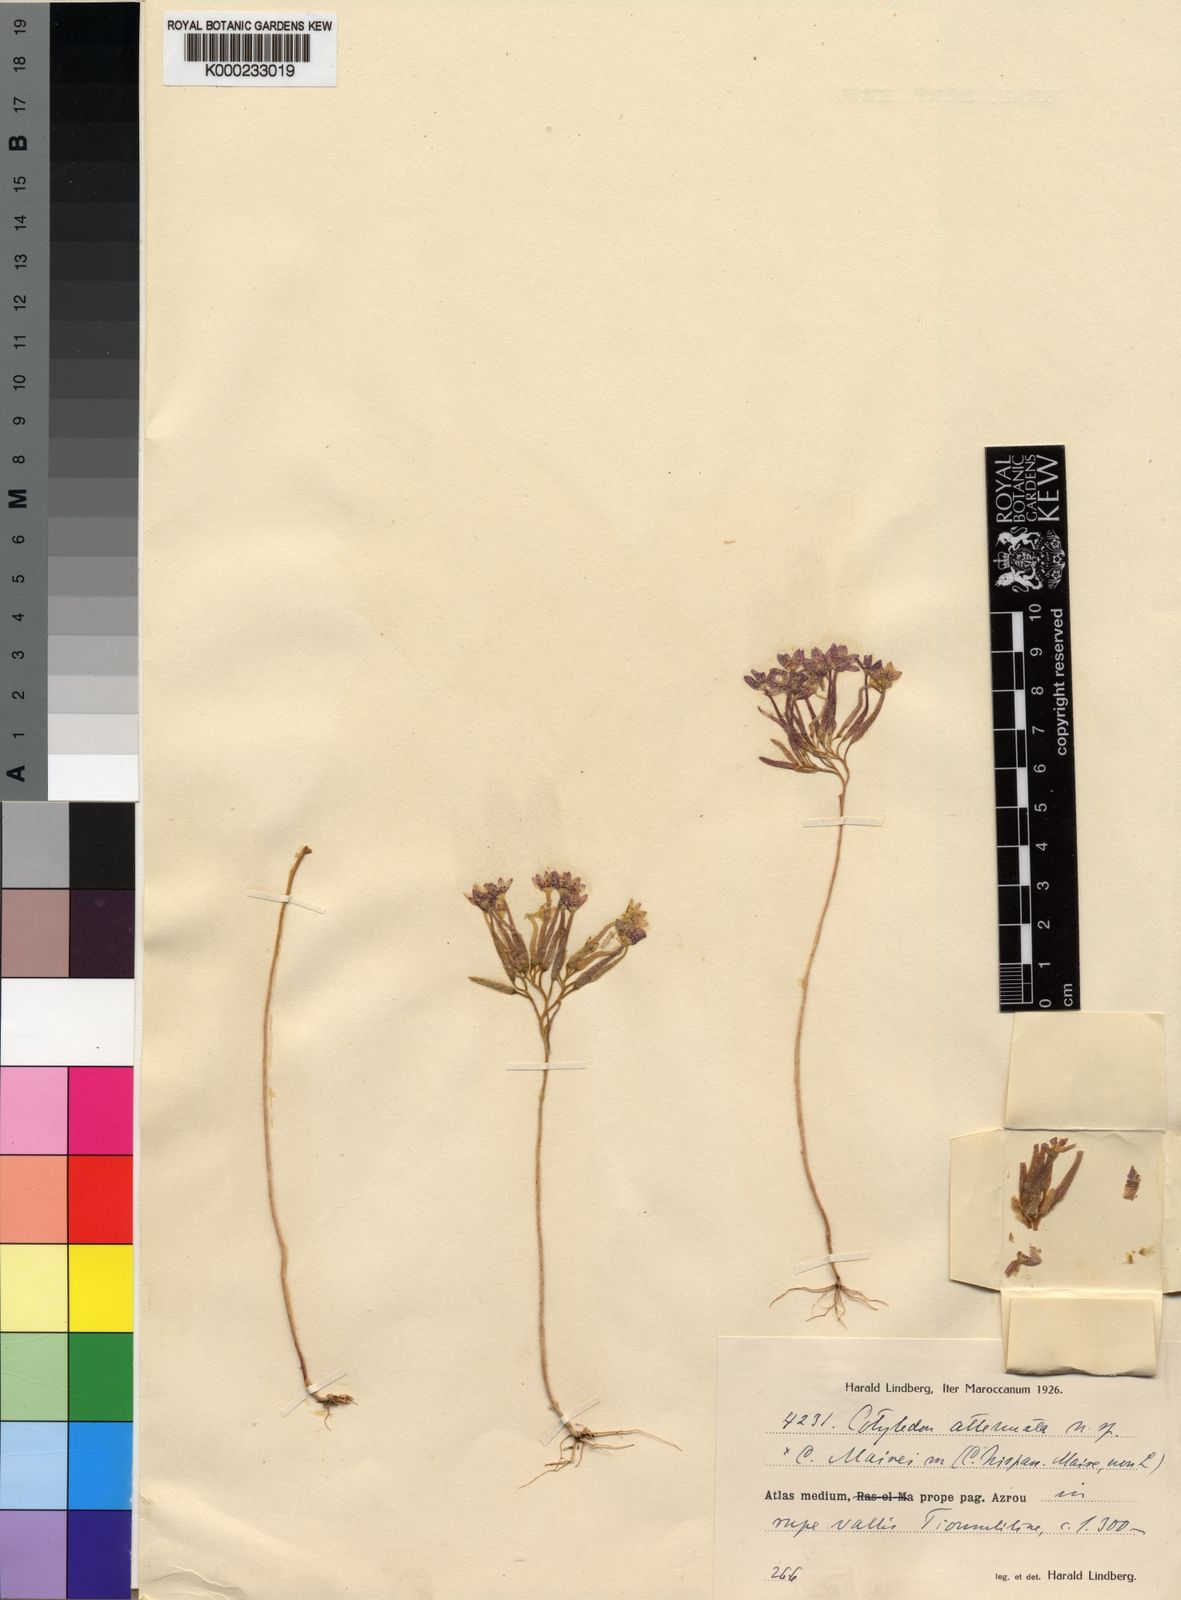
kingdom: Plantae
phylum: Tracheophyta
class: Magnoliopsida
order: Saxifragales
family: Crassulaceae
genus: Pistorinia
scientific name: Pistorinia
